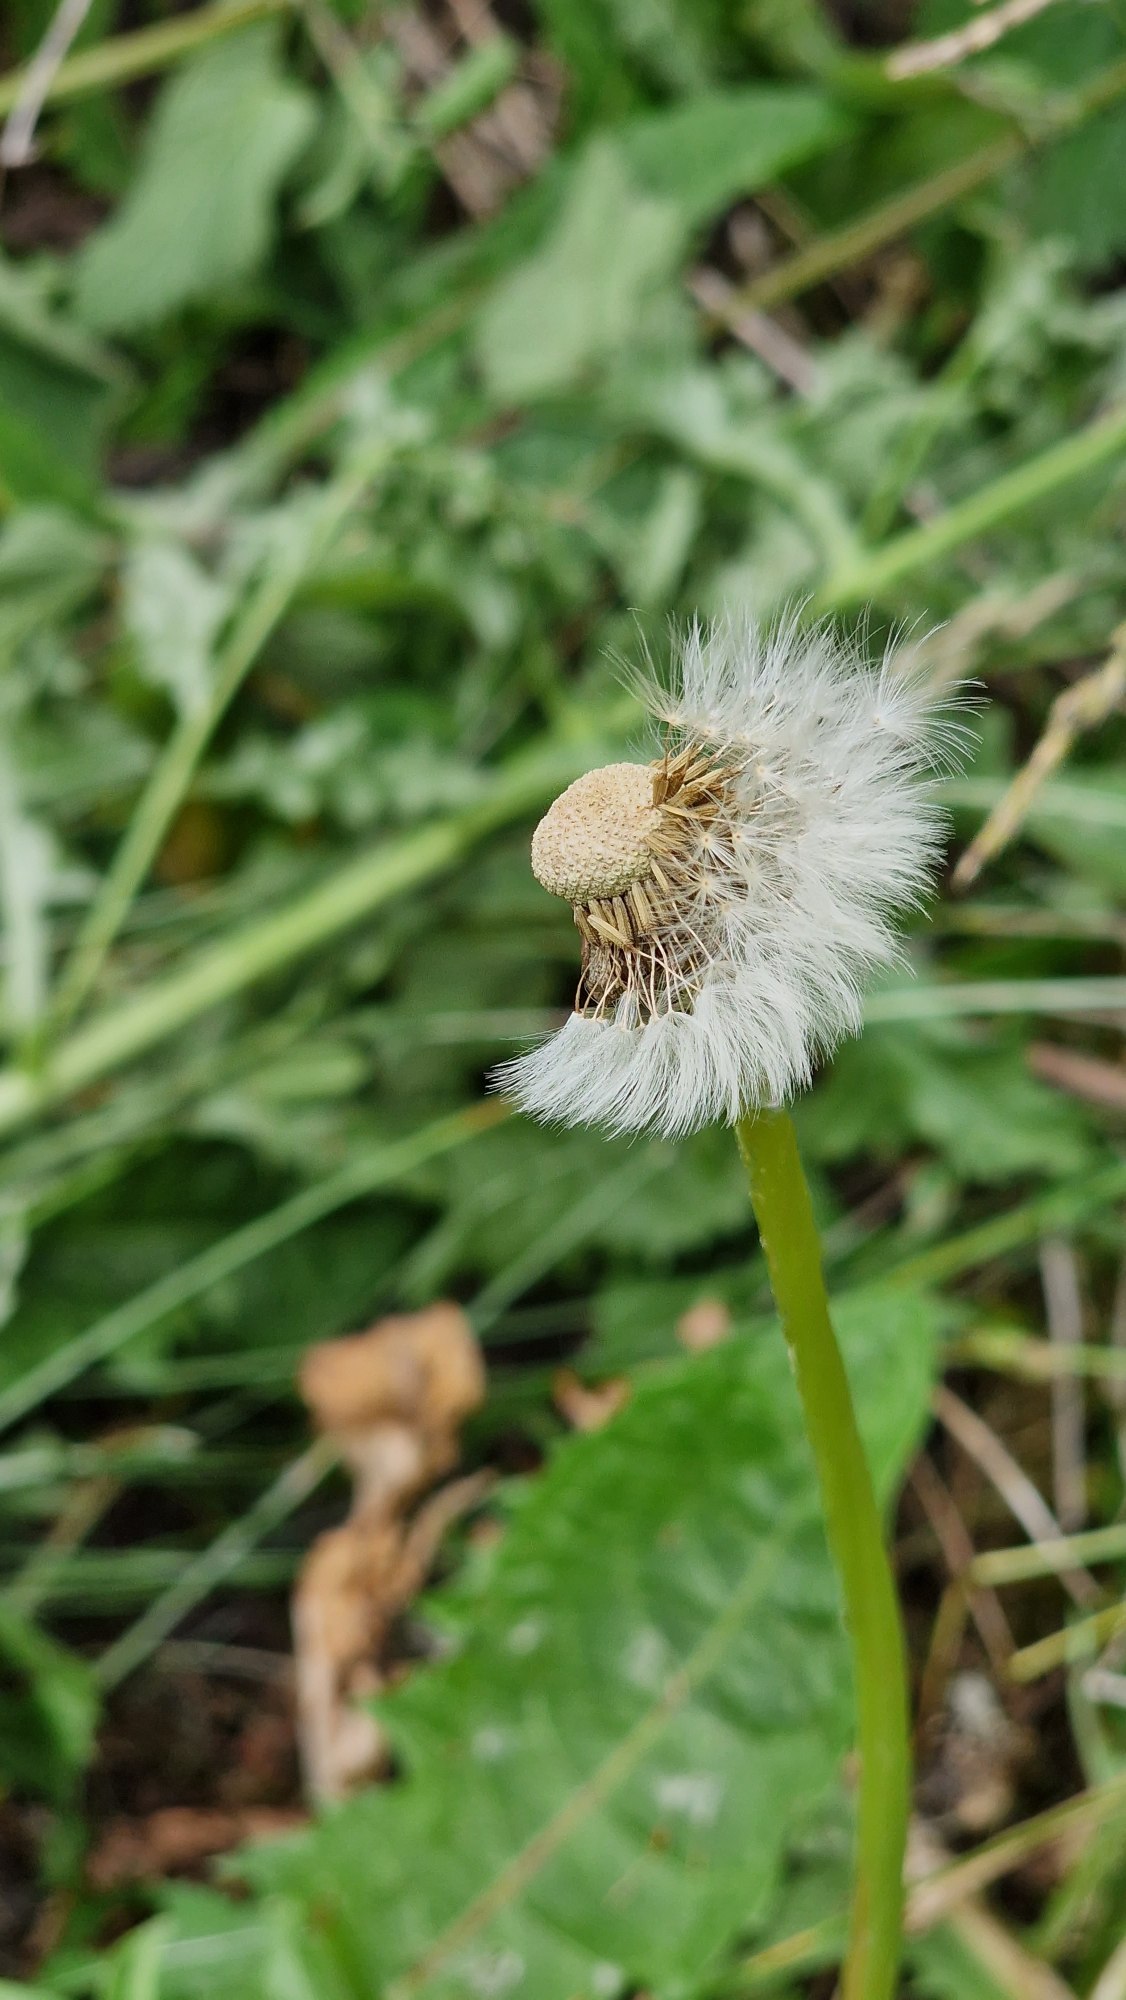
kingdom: Plantae
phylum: Tracheophyta
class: Magnoliopsida
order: Asterales
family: Asteraceae
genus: Taraxacum
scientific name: Taraxacum
